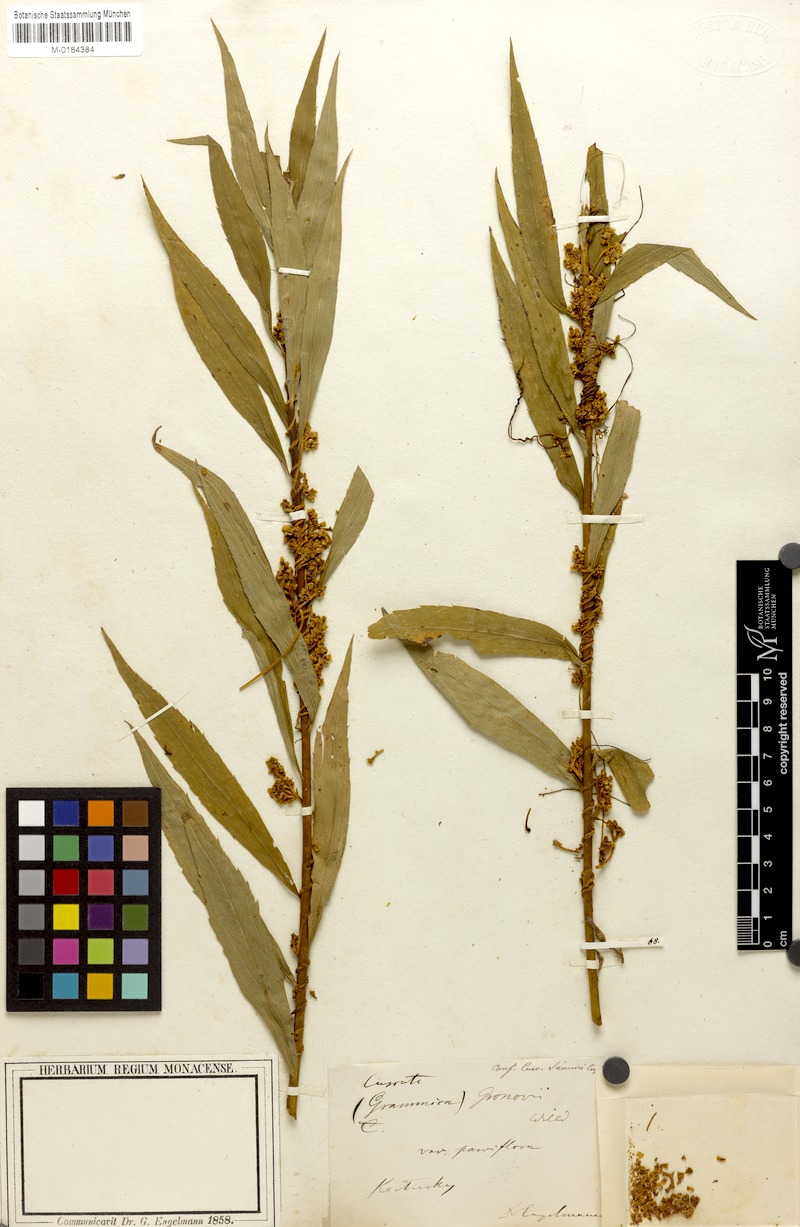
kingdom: Plantae
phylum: Tracheophyta
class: Magnoliopsida
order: Solanales
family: Convolvulaceae
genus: Cuscuta
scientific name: Cuscuta gronovii
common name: Common dodder
